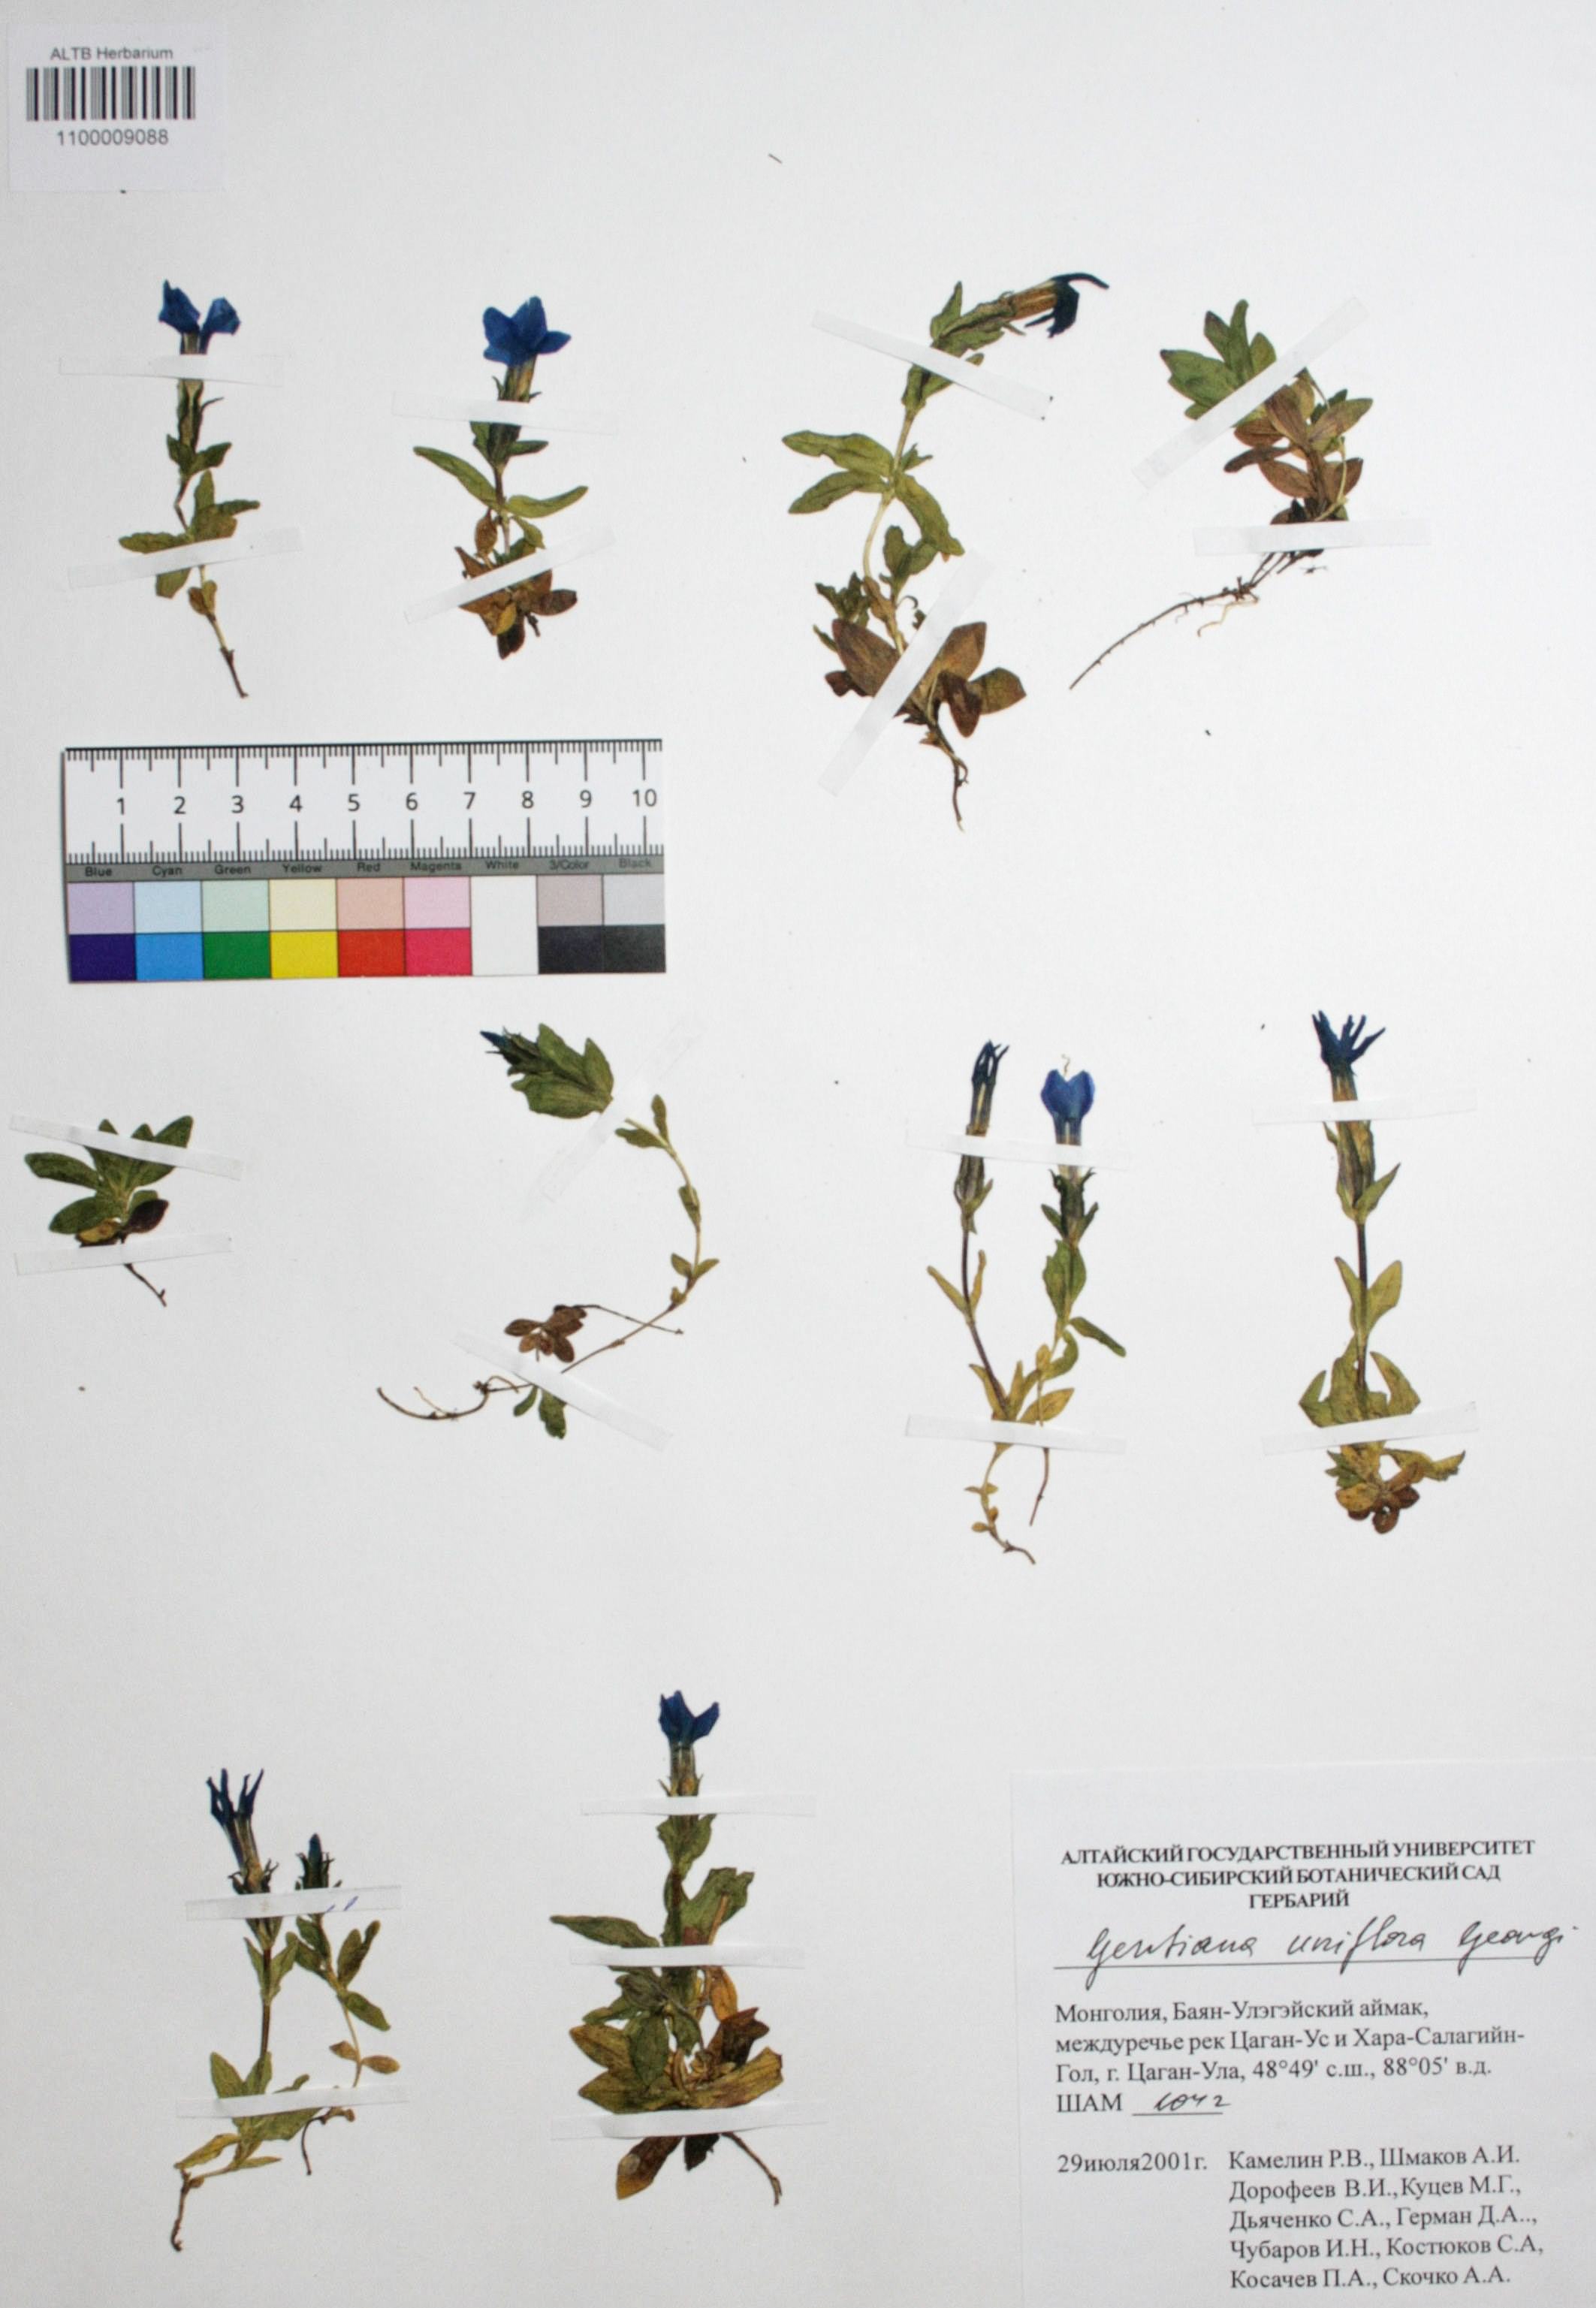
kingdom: Plantae
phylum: Tracheophyta
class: Magnoliopsida
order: Gentianales
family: Gentianaceae
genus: Gentiana
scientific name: Gentiana uniflora
